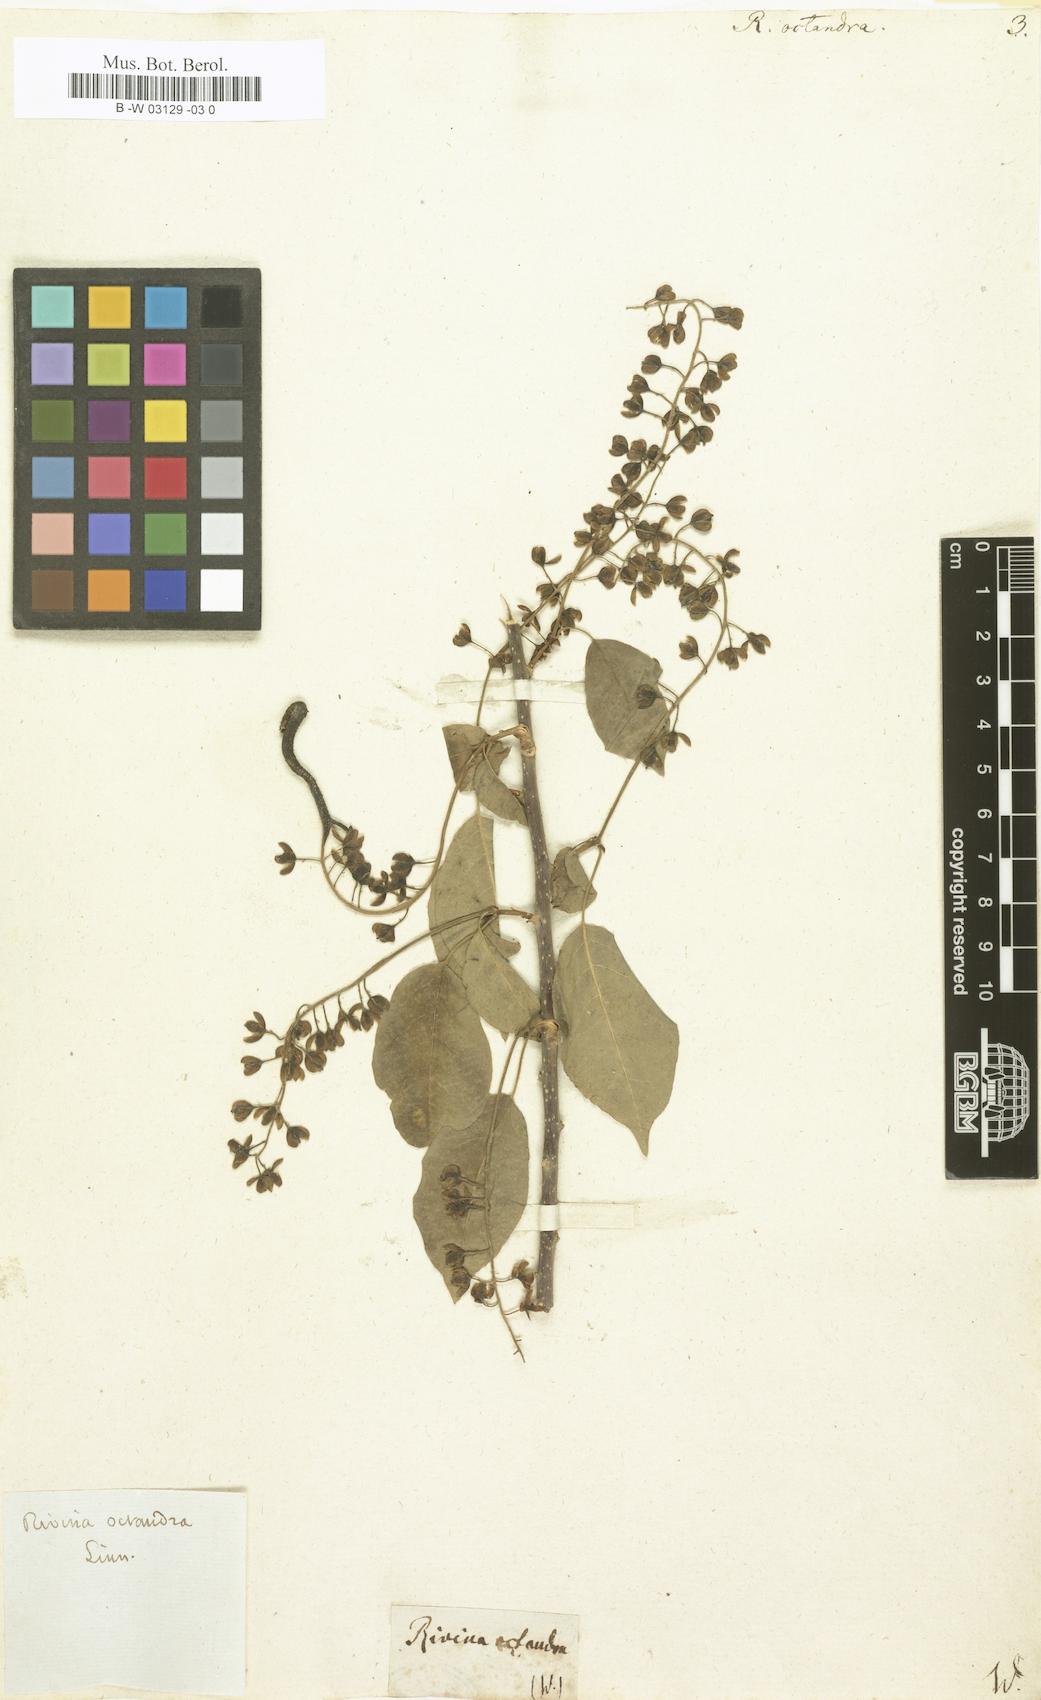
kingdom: Plantae
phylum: Tracheophyta
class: Magnoliopsida
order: Caryophyllales
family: Phytolaccaceae
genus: Trichostigma
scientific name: Trichostigma octandrum
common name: Basket wiss
